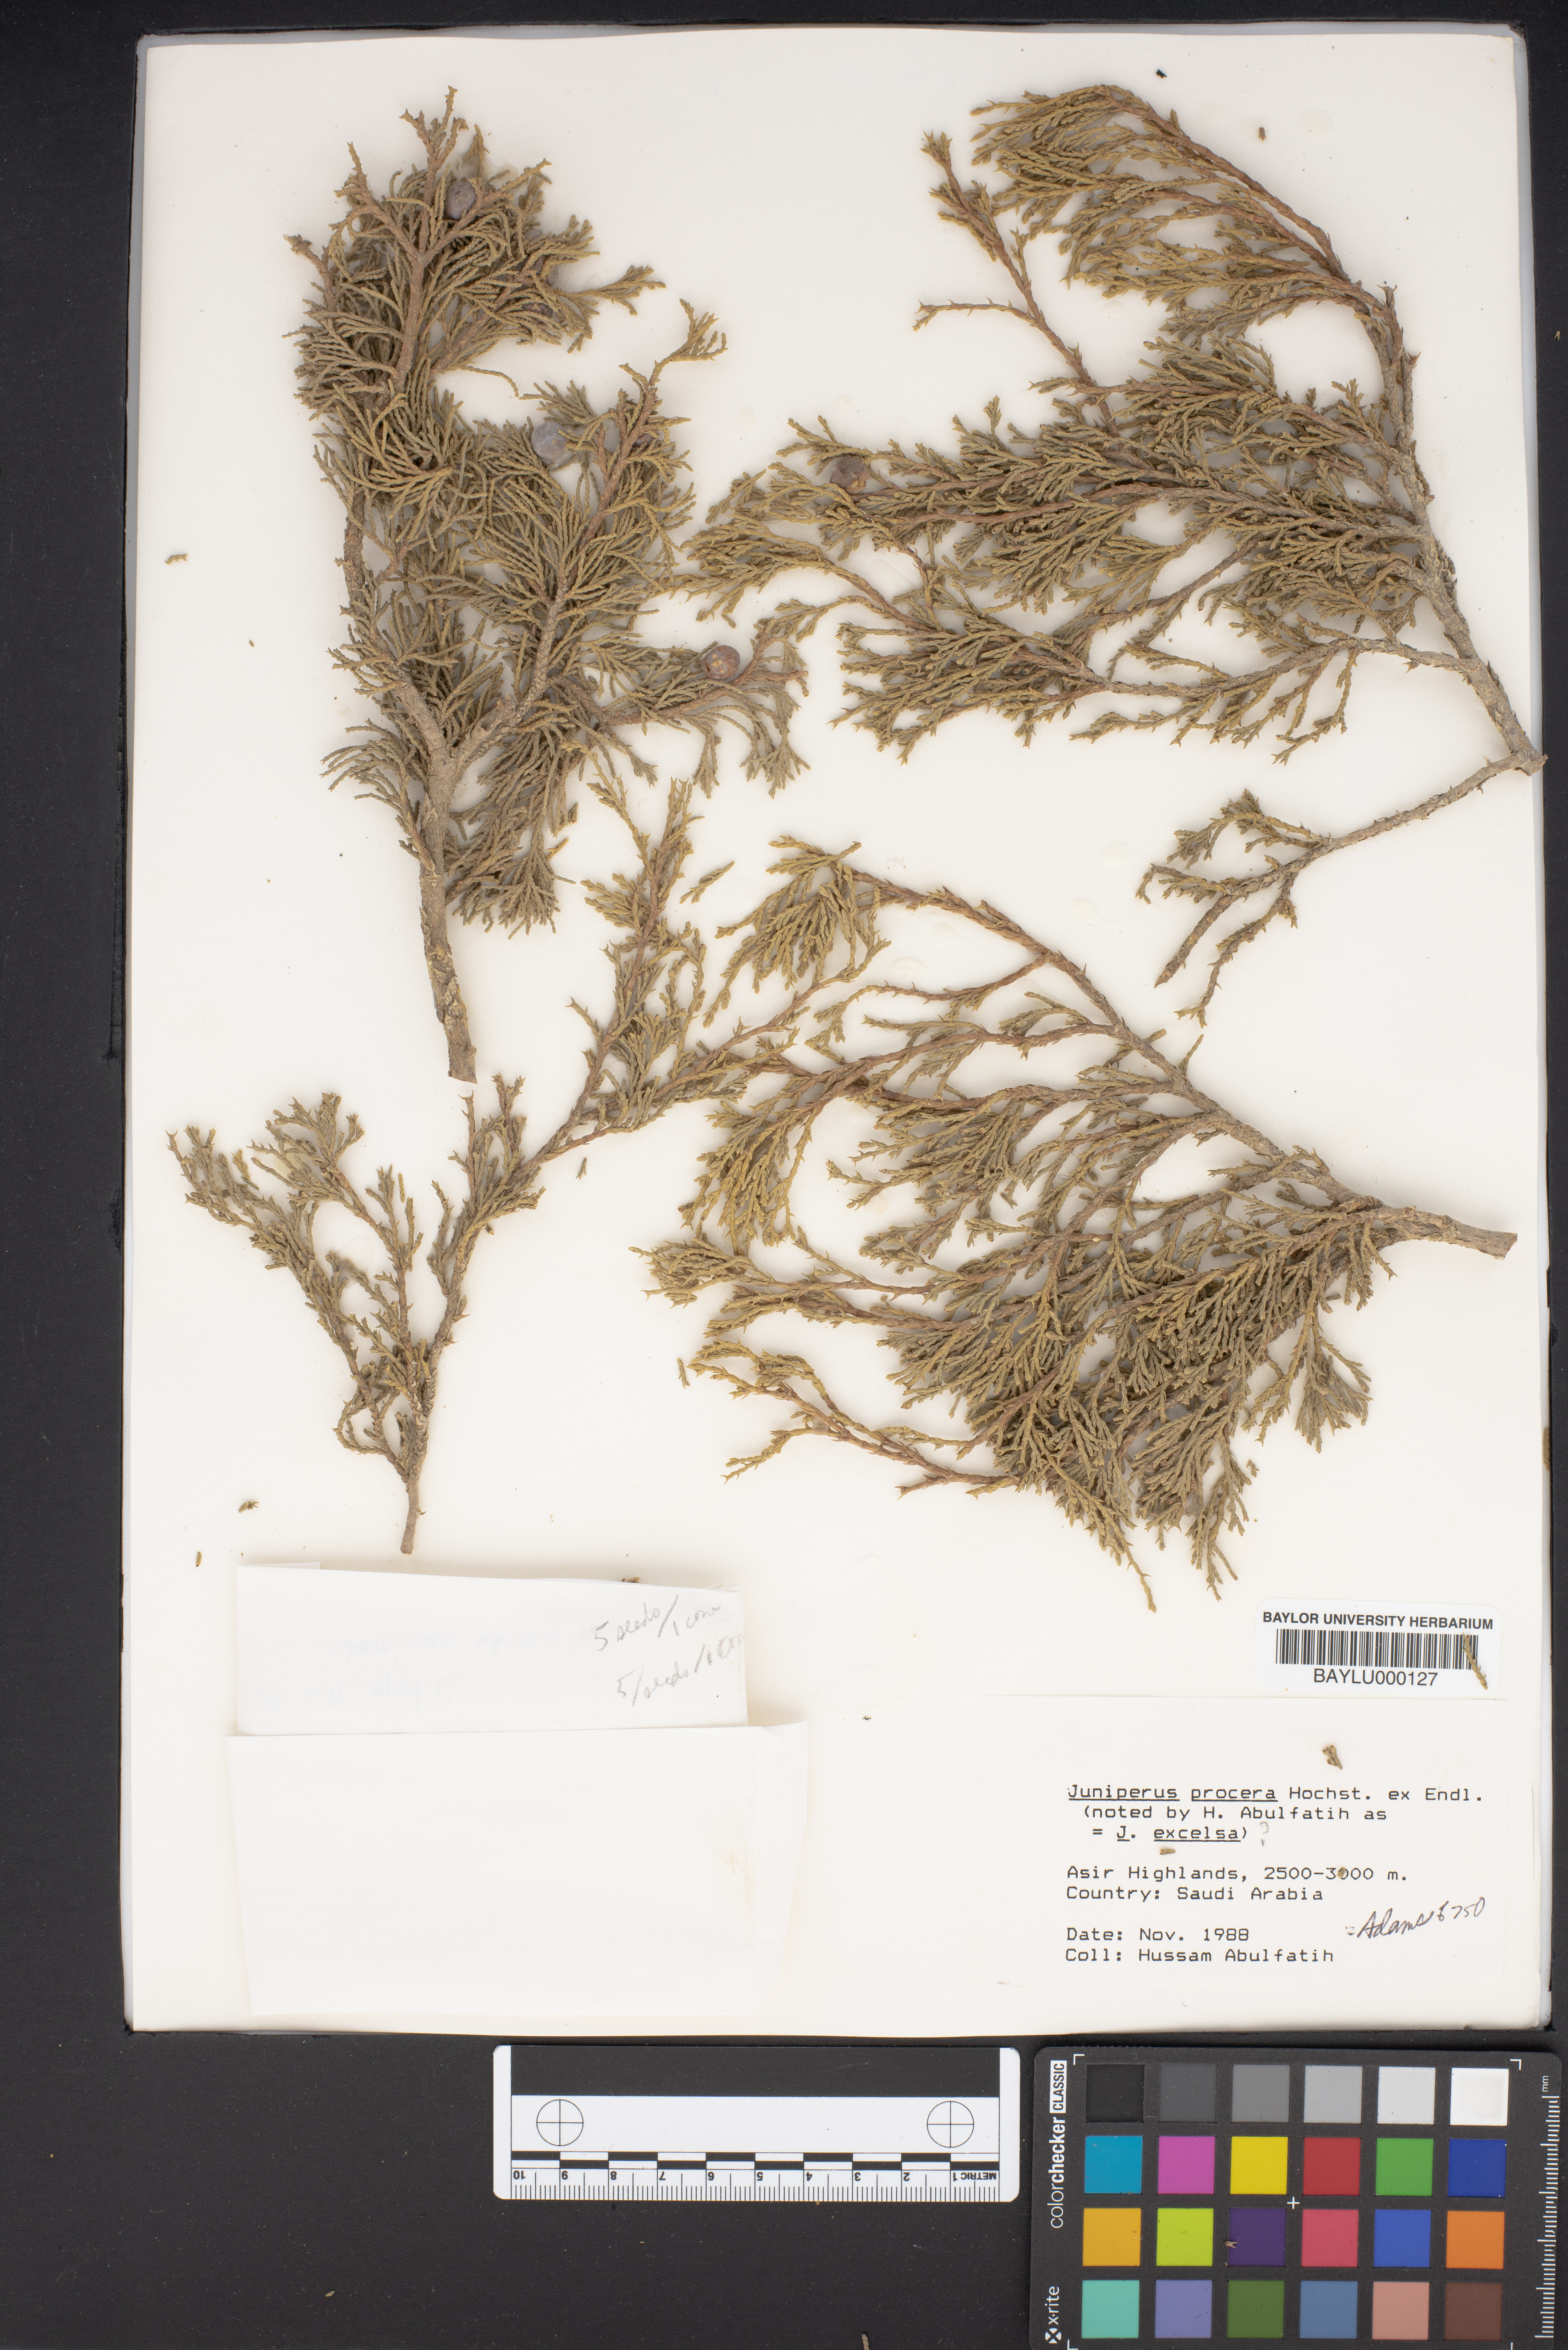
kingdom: Plantae
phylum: Tracheophyta
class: Pinopsida
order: Pinales
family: Cupressaceae
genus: Juniperus
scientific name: Juniperus procera
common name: African juniper
